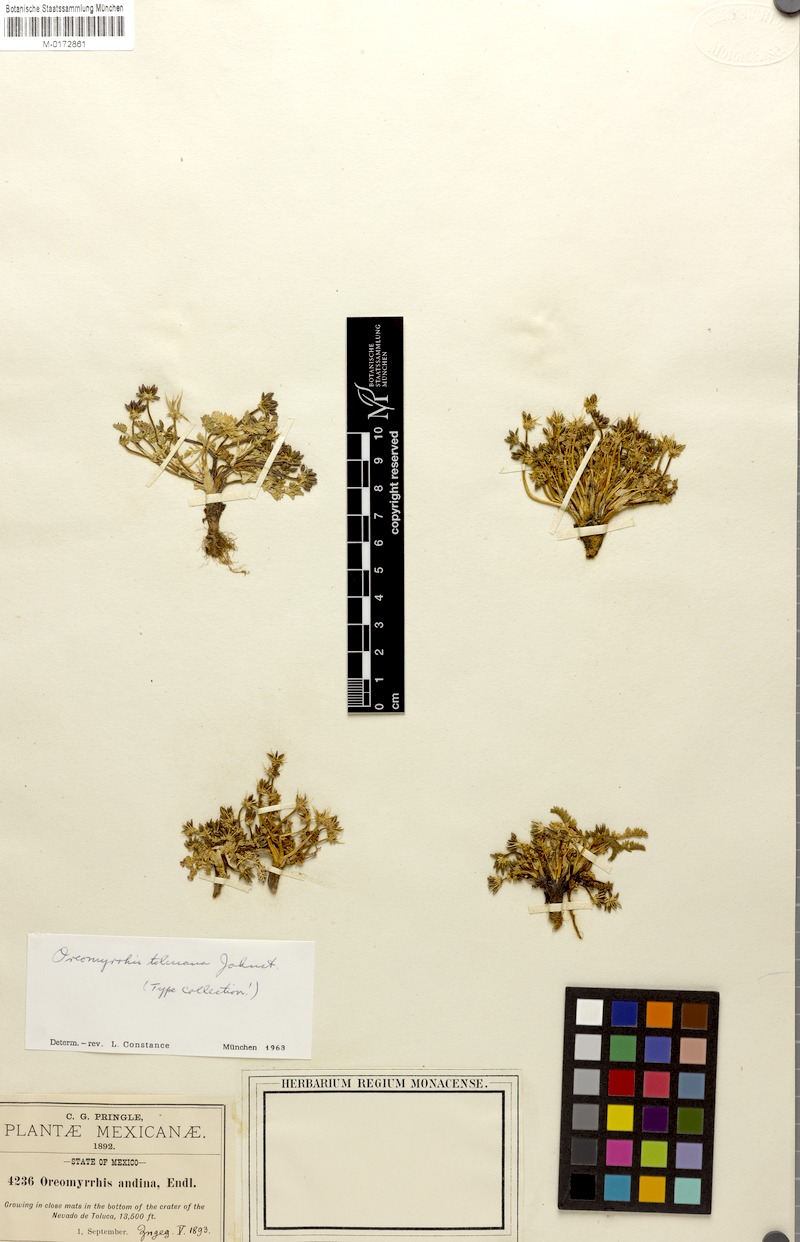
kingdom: Plantae
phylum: Tracheophyta
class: Magnoliopsida
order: Apiales
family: Apiaceae
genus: Chaerophyllum
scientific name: Chaerophyllum tolucanum
